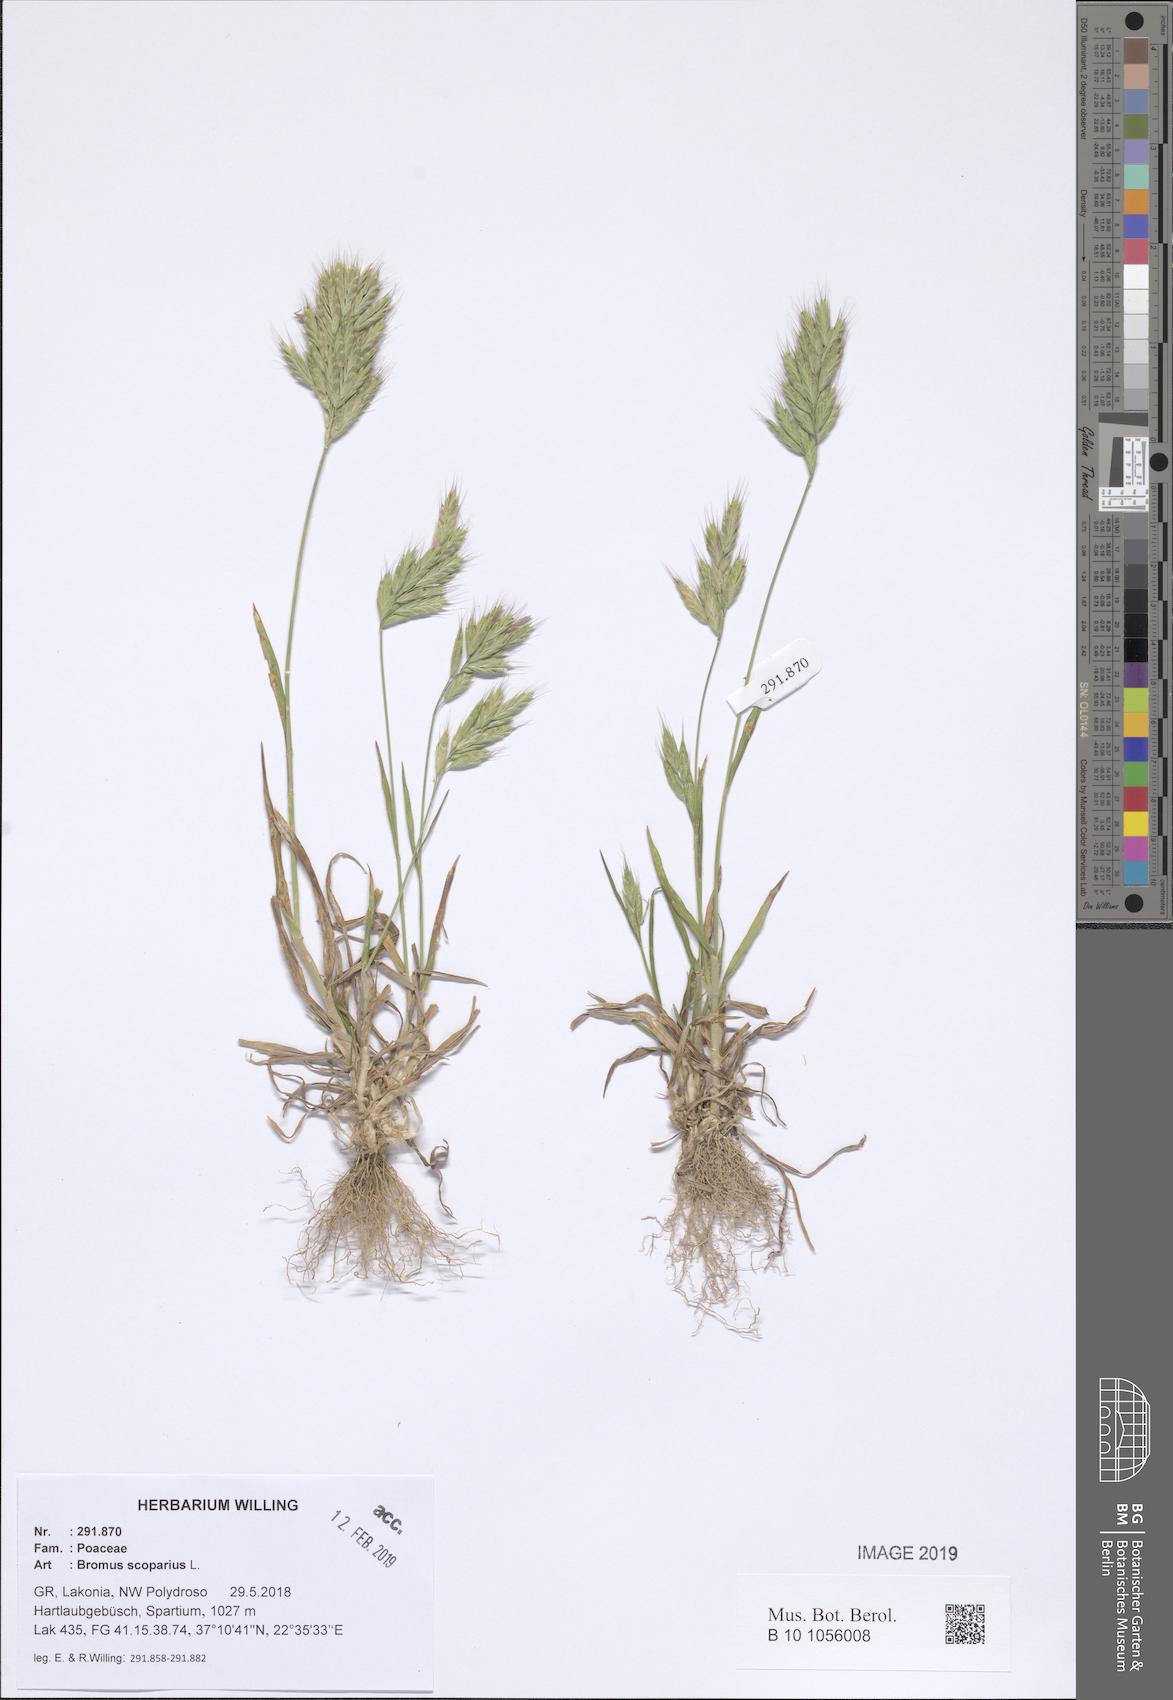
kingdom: Plantae
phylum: Tracheophyta
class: Liliopsida
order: Poales
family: Poaceae
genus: Bromus
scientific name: Bromus scoparius
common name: Broom brome
